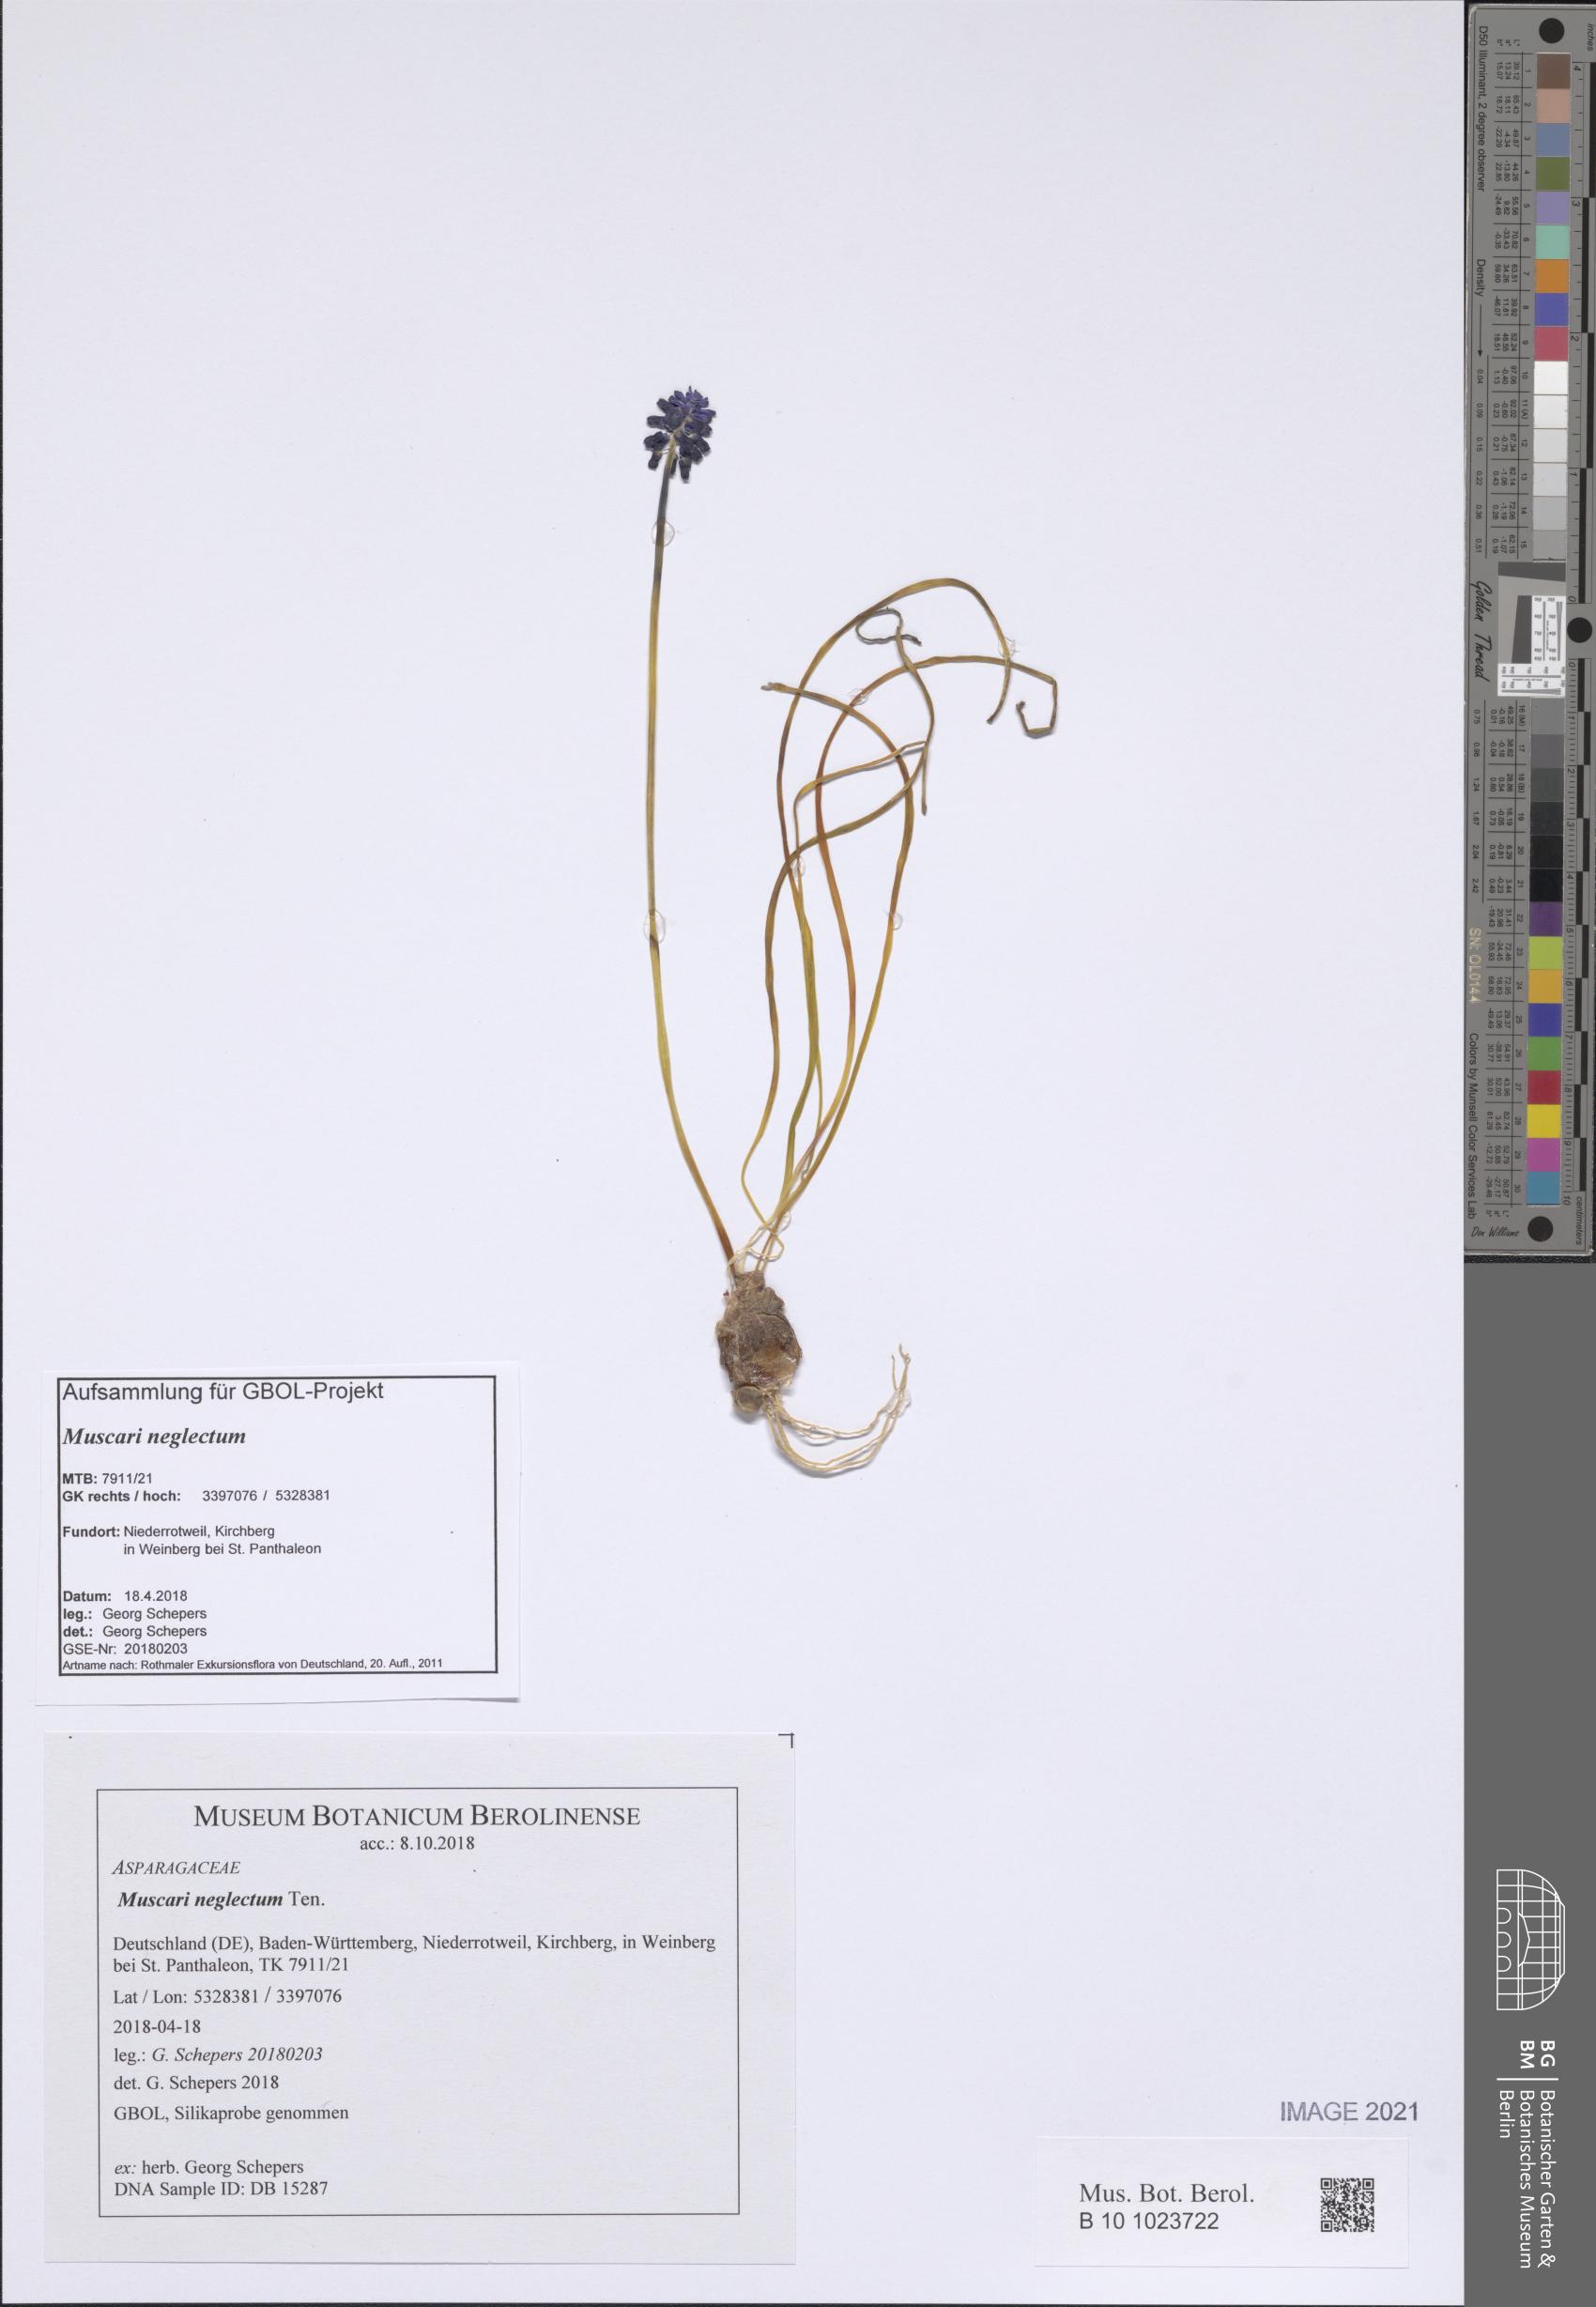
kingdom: Plantae
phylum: Tracheophyta
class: Liliopsida
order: Asparagales
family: Asparagaceae
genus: Muscari
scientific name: Muscari neglectum
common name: Grape-hyacinth
